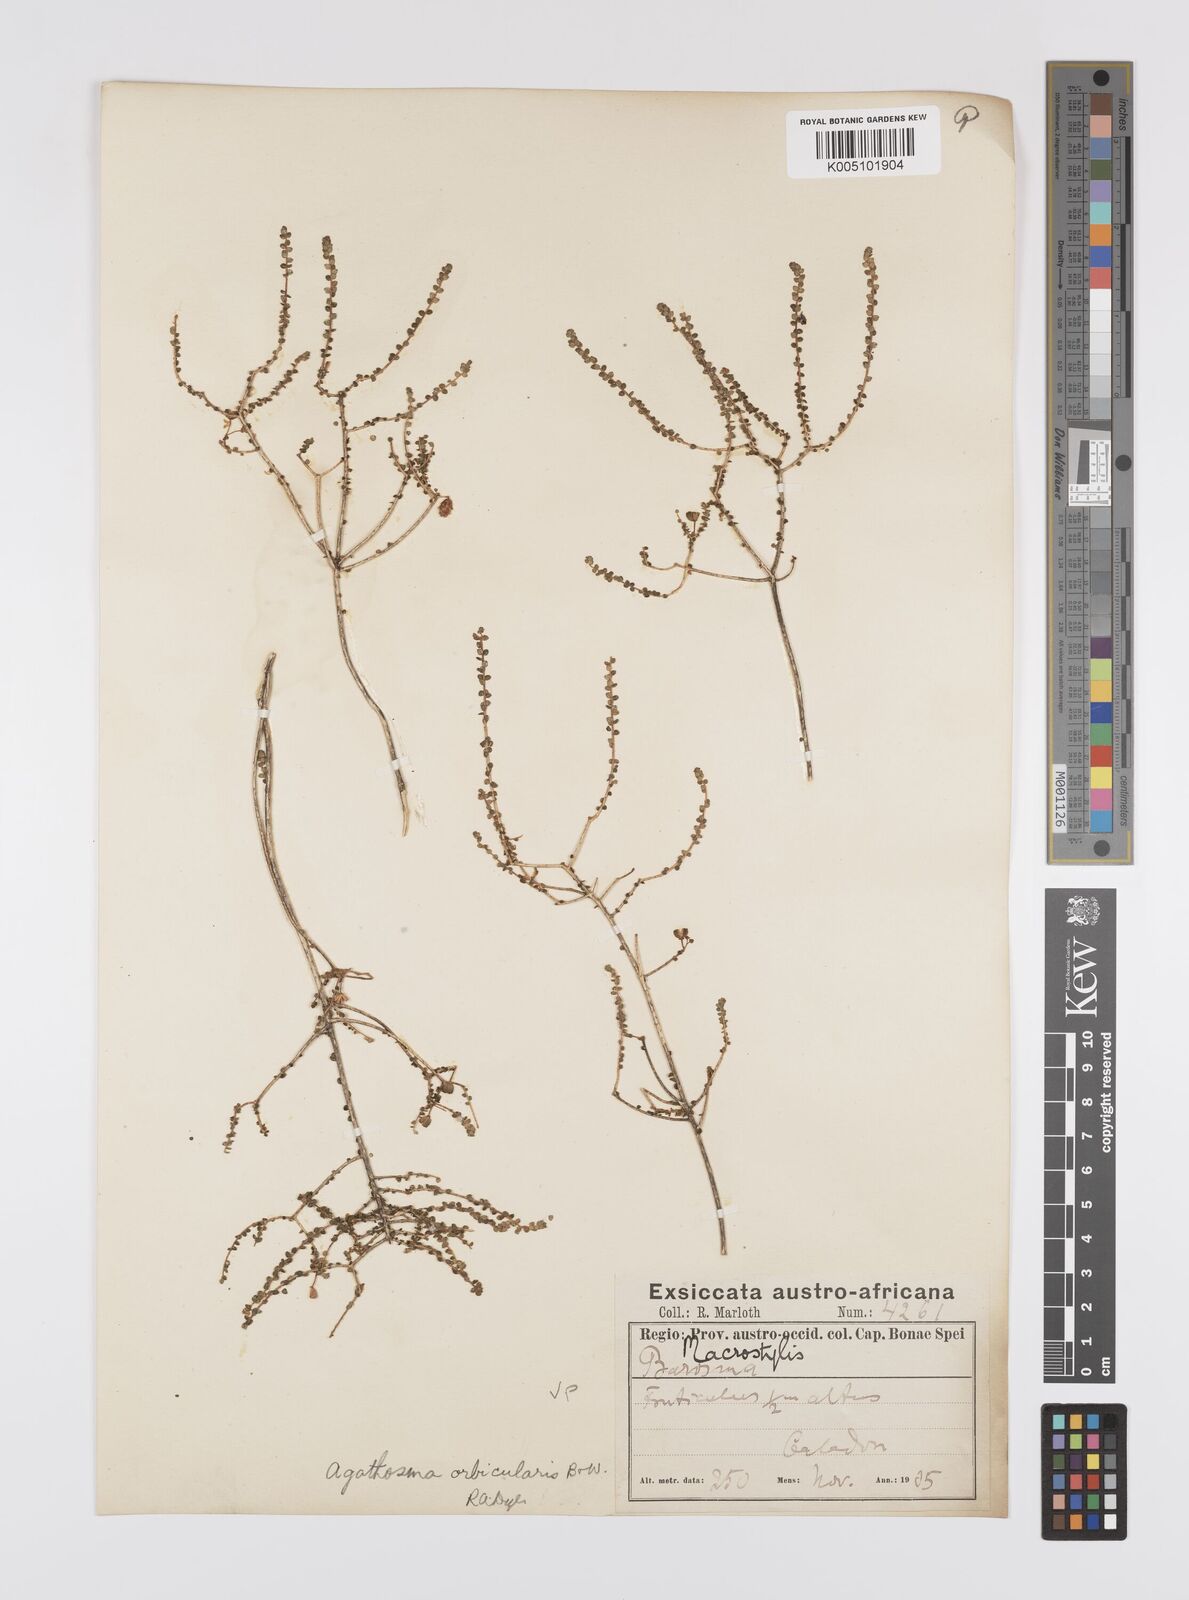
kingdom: Plantae
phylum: Tracheophyta
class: Magnoliopsida
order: Sapindales
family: Rutaceae
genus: Agathosma
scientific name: Agathosma orbicularis
